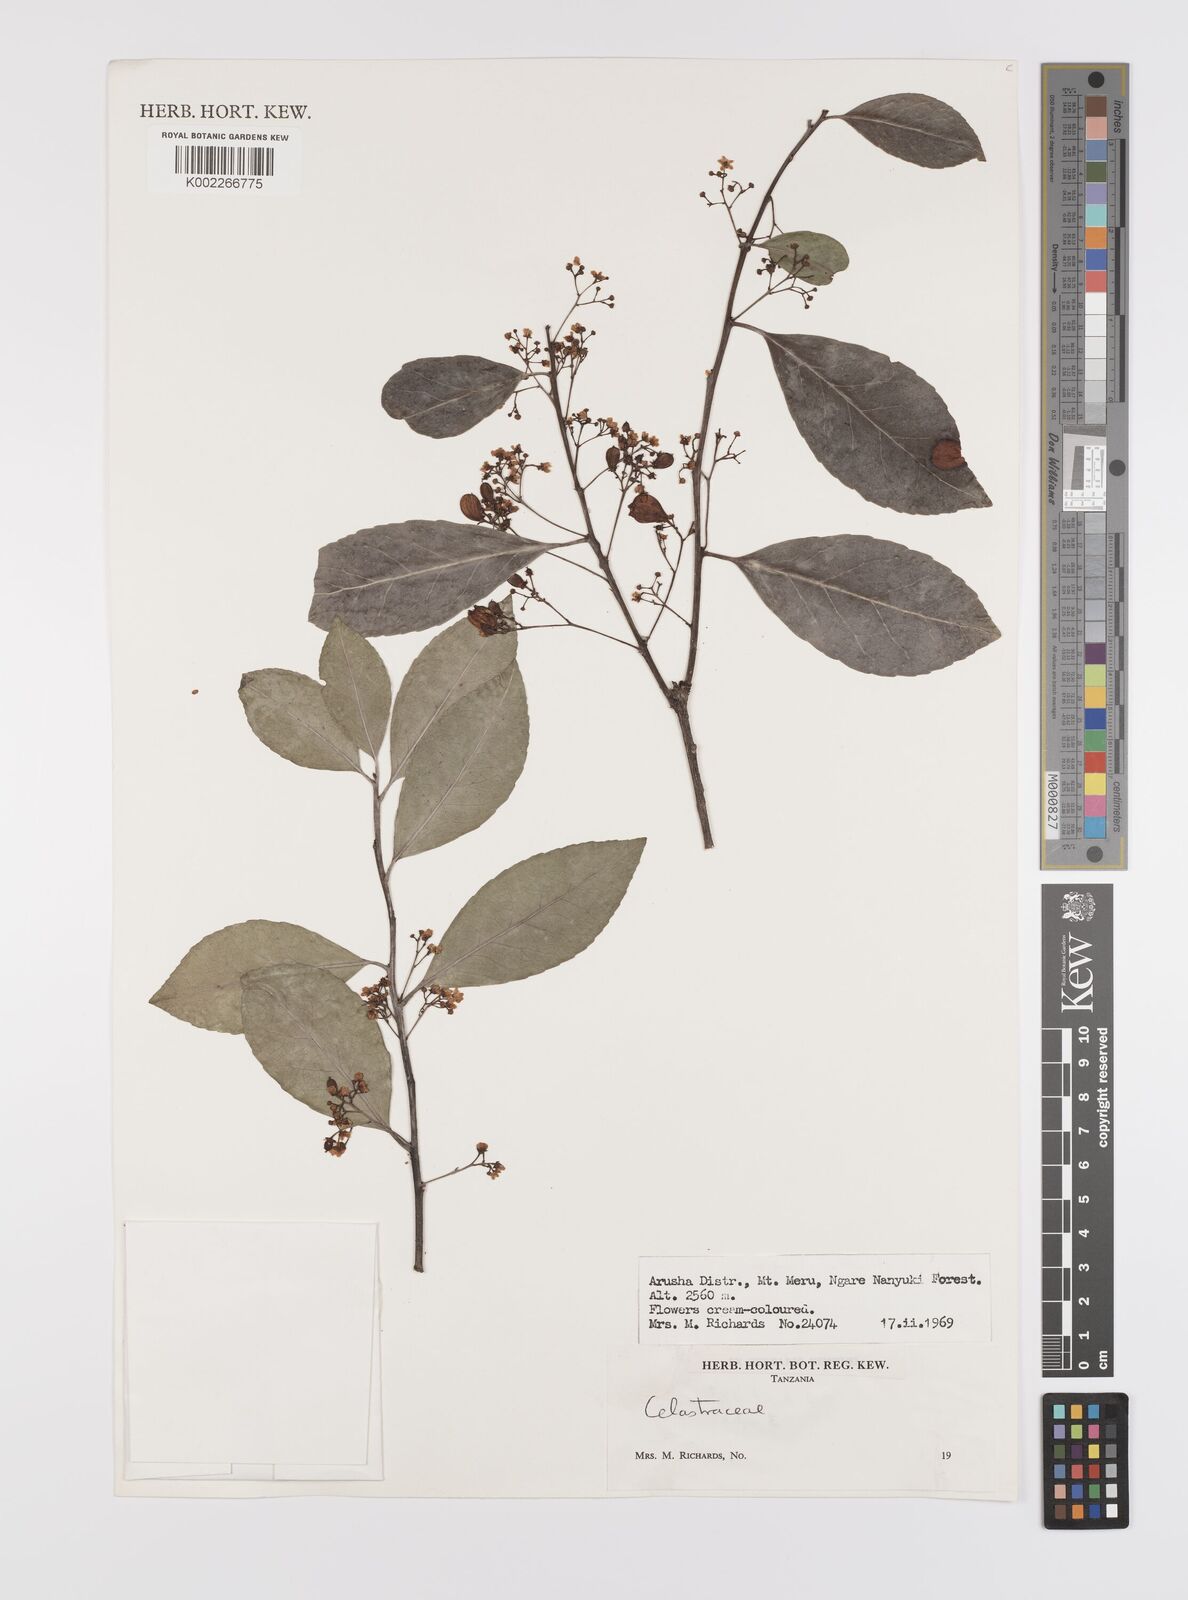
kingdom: Plantae
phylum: Tracheophyta
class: Magnoliopsida
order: Celastrales
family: Celastraceae
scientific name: Celastraceae
